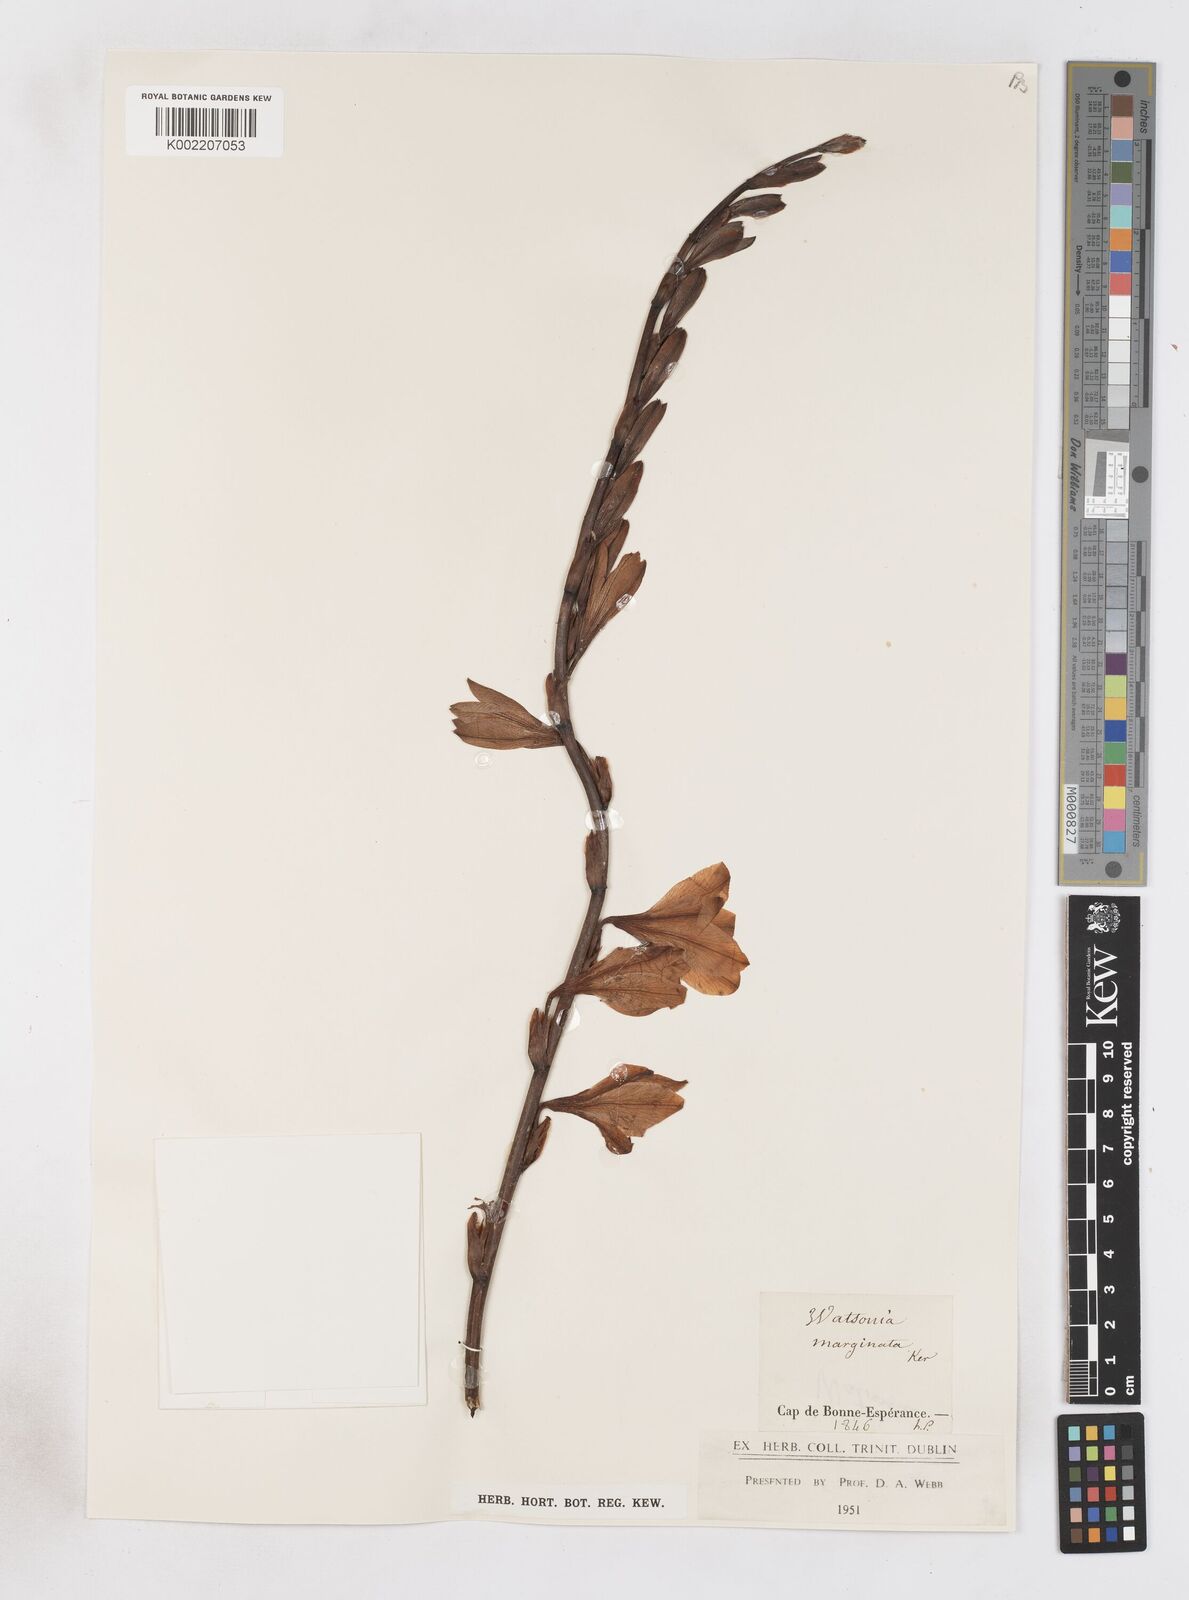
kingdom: Plantae
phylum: Tracheophyta
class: Liliopsida
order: Asparagales
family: Iridaceae
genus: Watsonia
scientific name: Watsonia borbonica
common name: Bugle-lily
